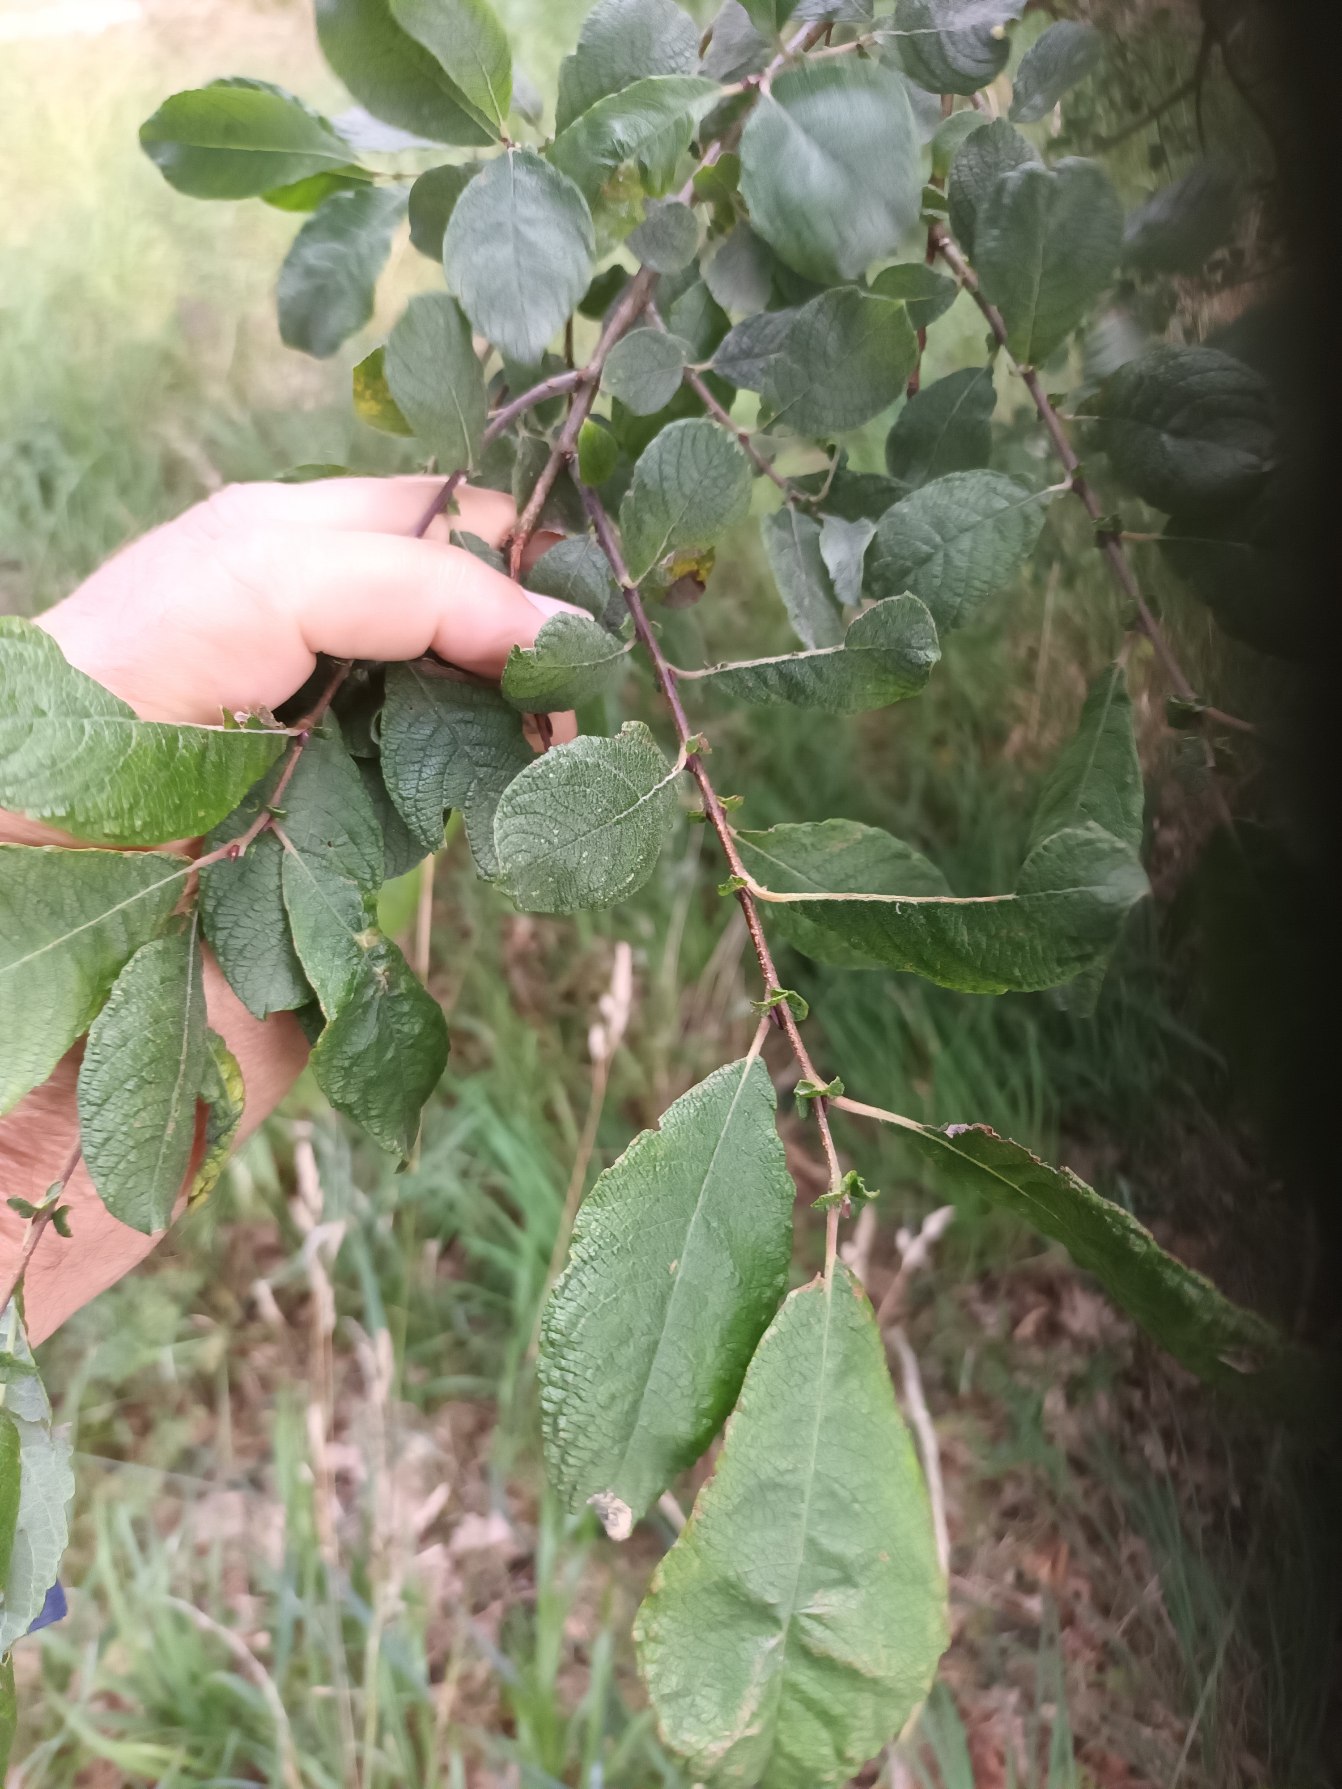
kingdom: Plantae
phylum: Tracheophyta
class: Magnoliopsida
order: Malpighiales
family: Salicaceae
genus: Salix
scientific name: Salix aurita
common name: Øret pil
